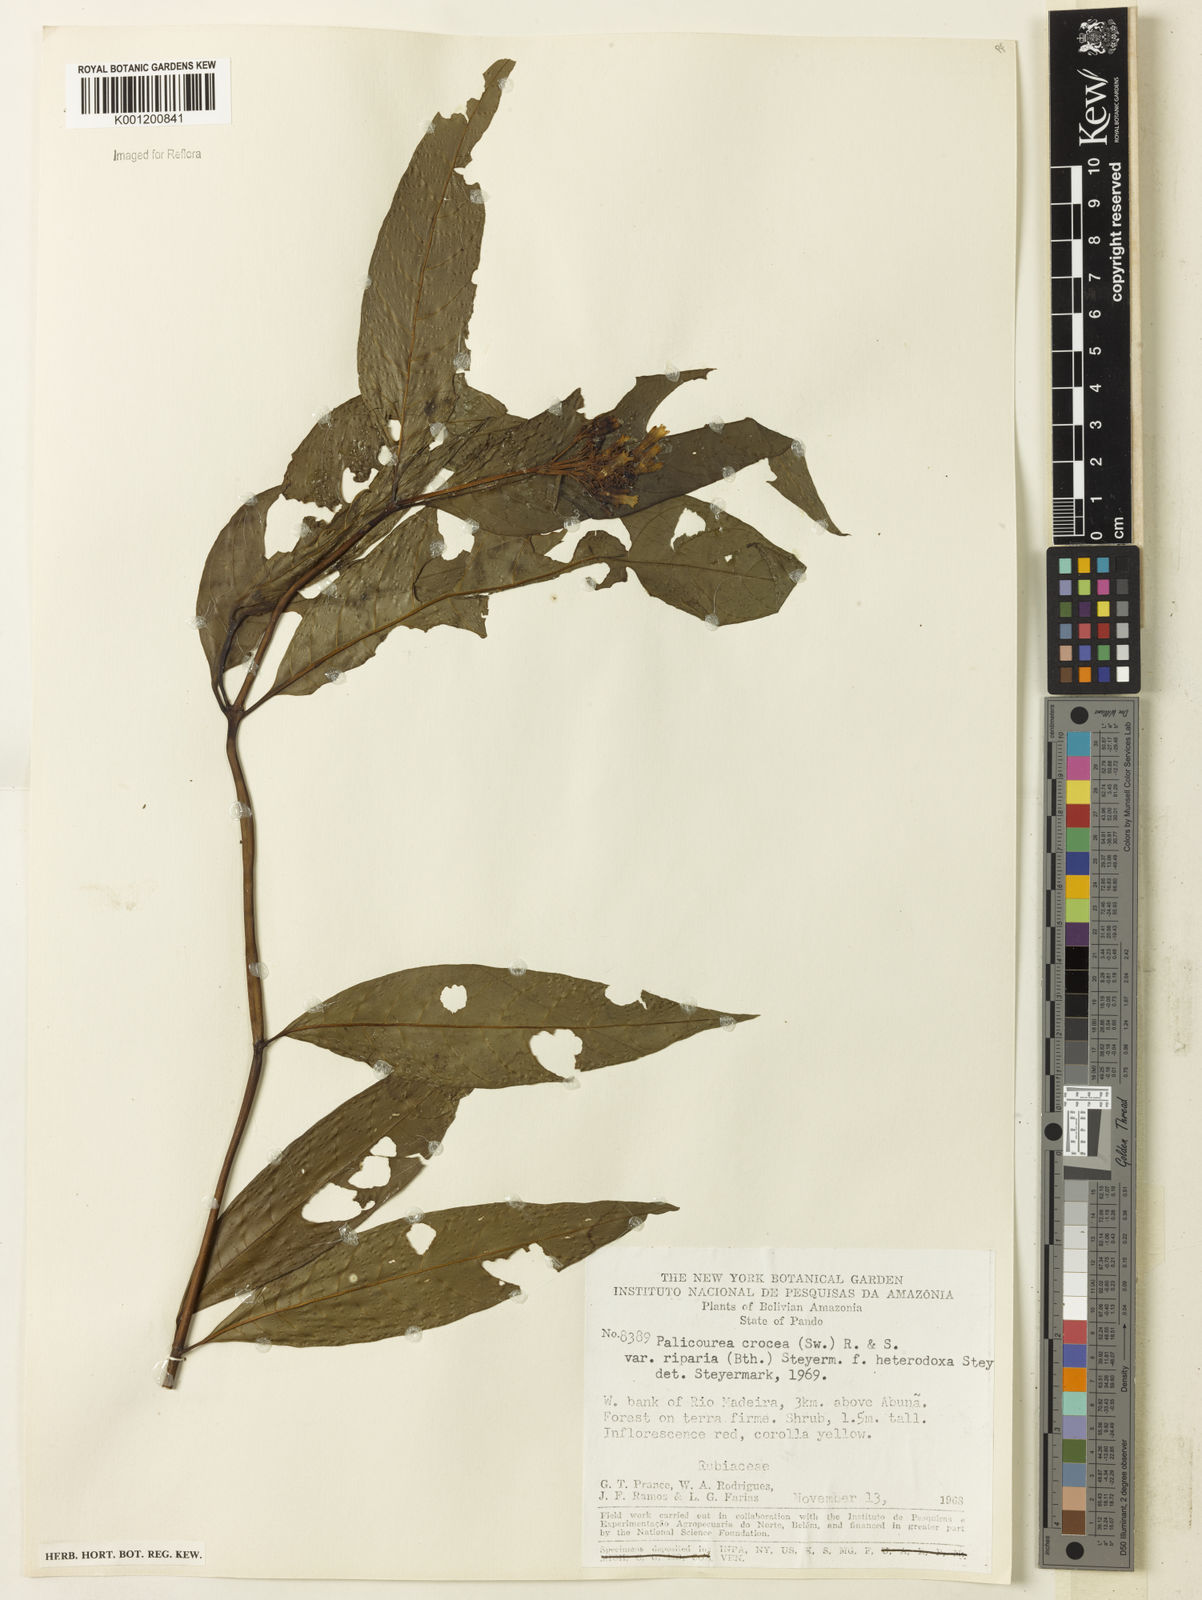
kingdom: Plantae
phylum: Tracheophyta
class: Magnoliopsida
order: Gentianales
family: Rubiaceae
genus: Palicourea
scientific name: Palicourea croceoides
